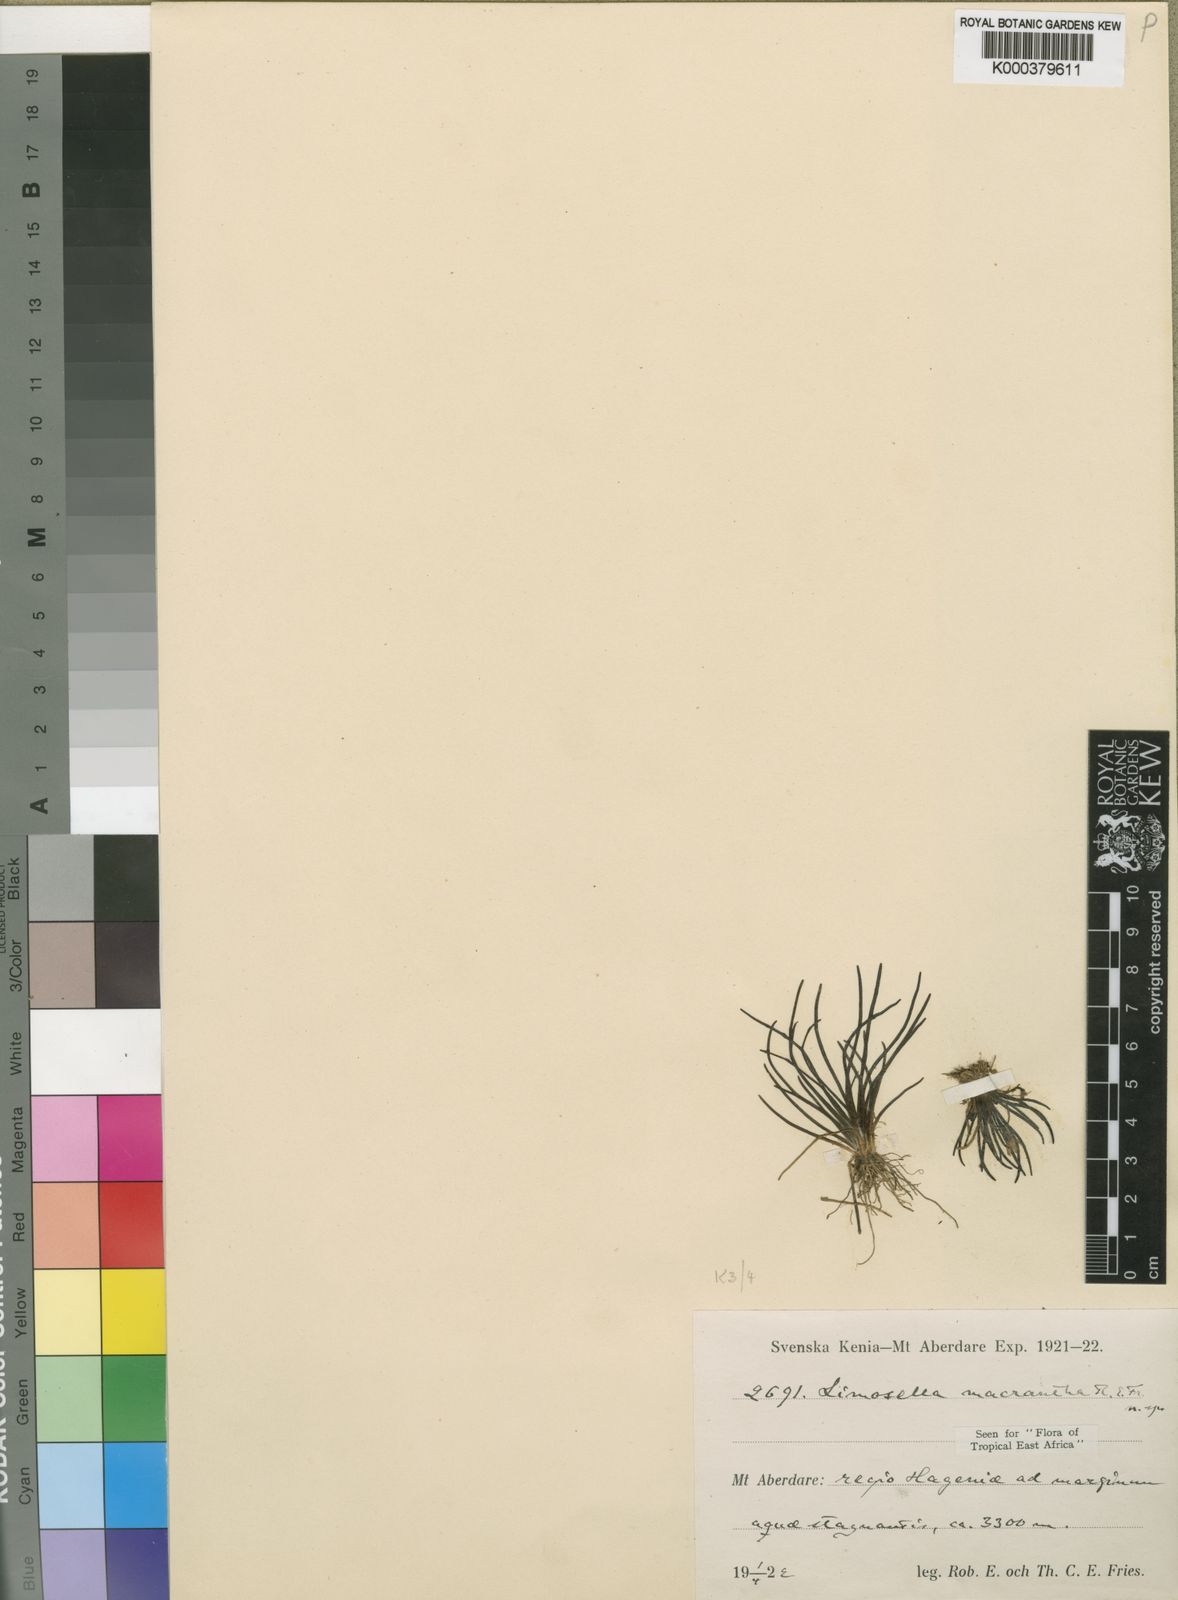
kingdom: Plantae
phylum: Tracheophyta
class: Magnoliopsida
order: Lamiales
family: Scrophulariaceae
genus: Limosella
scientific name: Limosella macrantha
